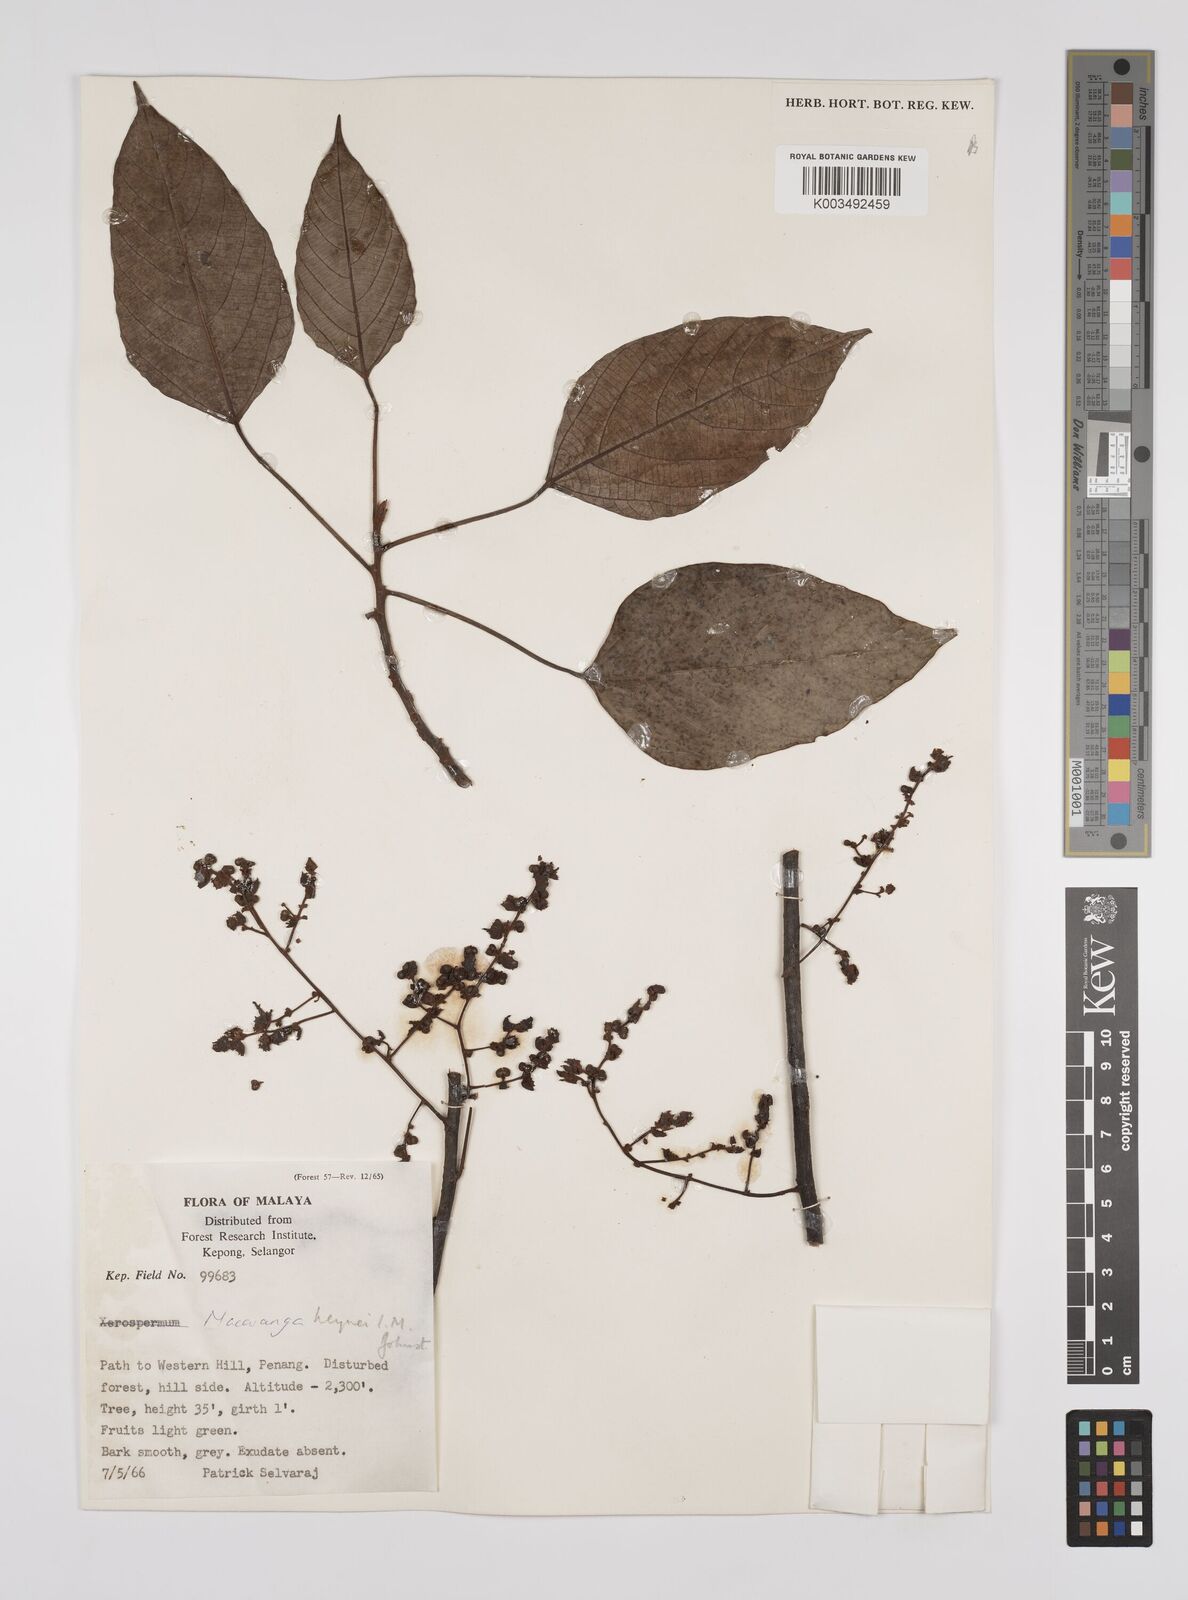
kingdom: Plantae
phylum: Tracheophyta
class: Magnoliopsida
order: Malpighiales
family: Euphorbiaceae
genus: Macaranga
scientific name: Macaranga heynei
